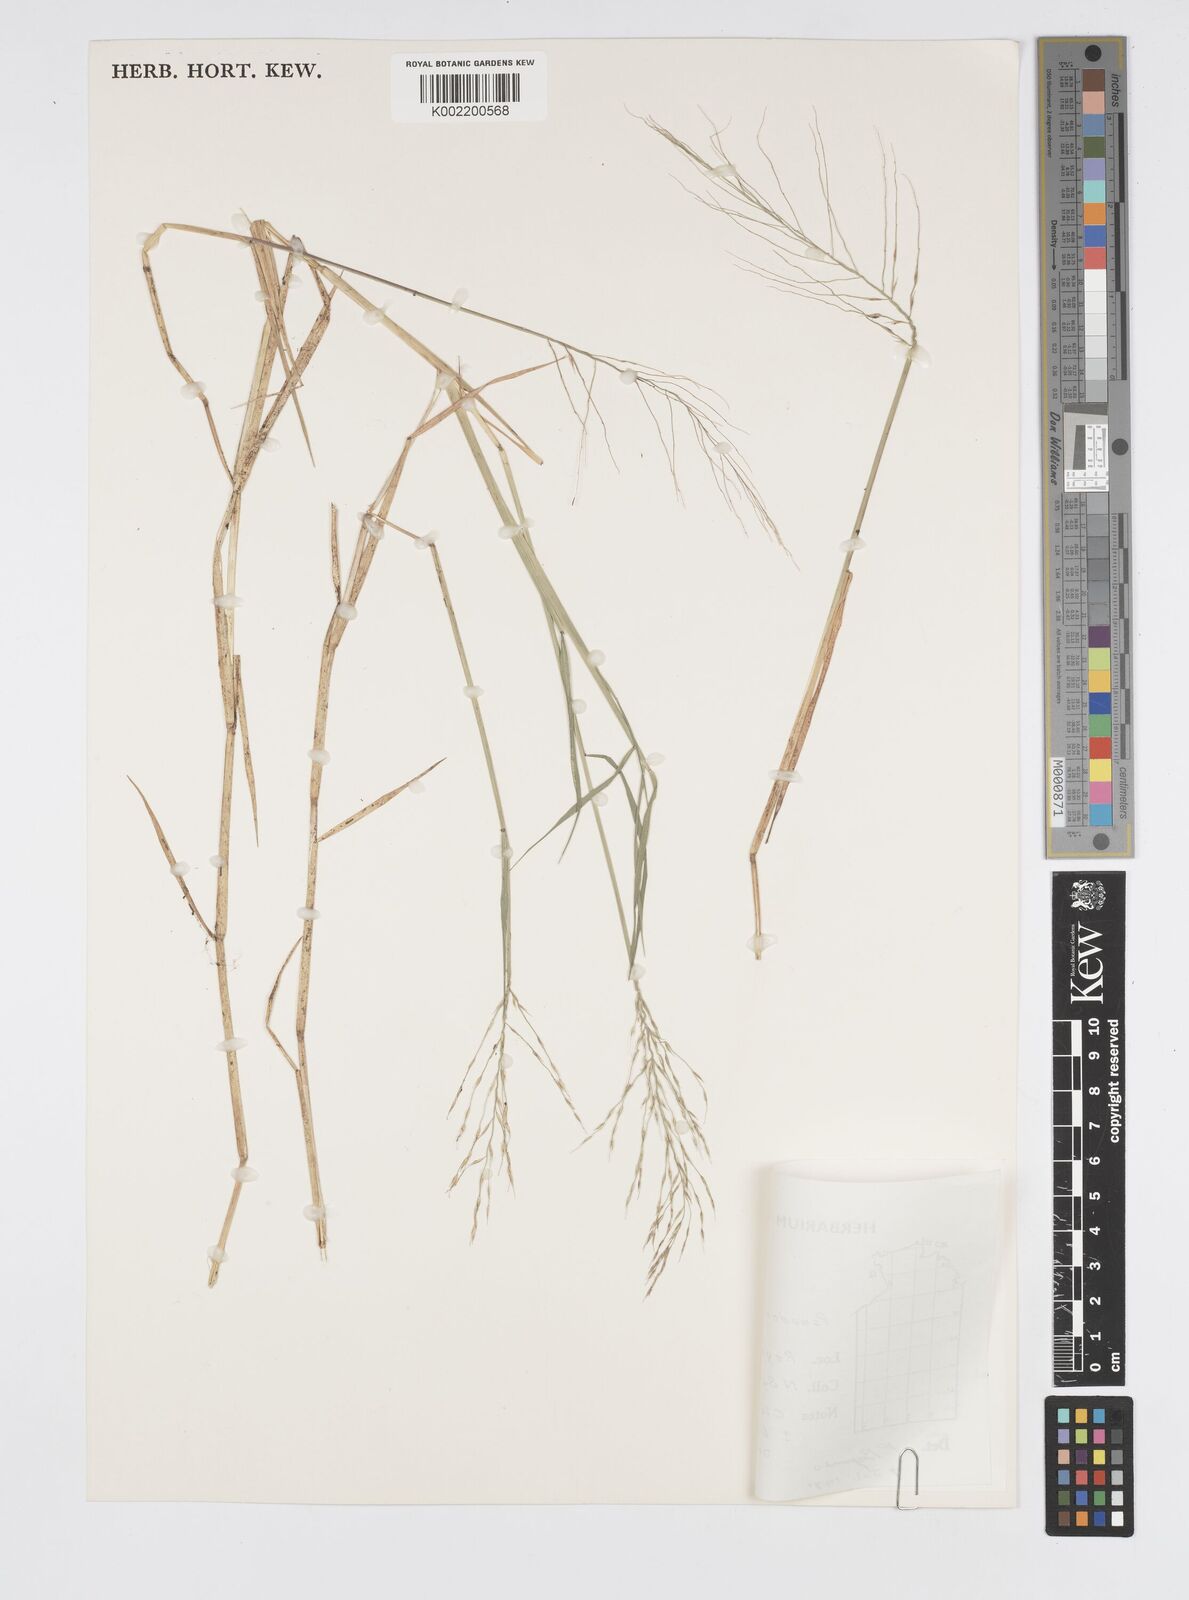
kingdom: Plantae
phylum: Tracheophyta
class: Liliopsida
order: Poales
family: Poaceae
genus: Pseudoraphis
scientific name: Pseudoraphis spinescens
